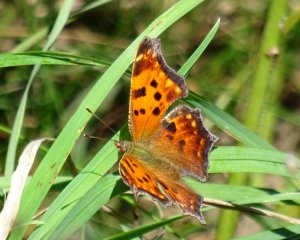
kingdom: Animalia
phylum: Arthropoda
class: Insecta
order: Lepidoptera
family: Nymphalidae
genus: Polygonia
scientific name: Polygonia comma
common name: Eastern Comma
